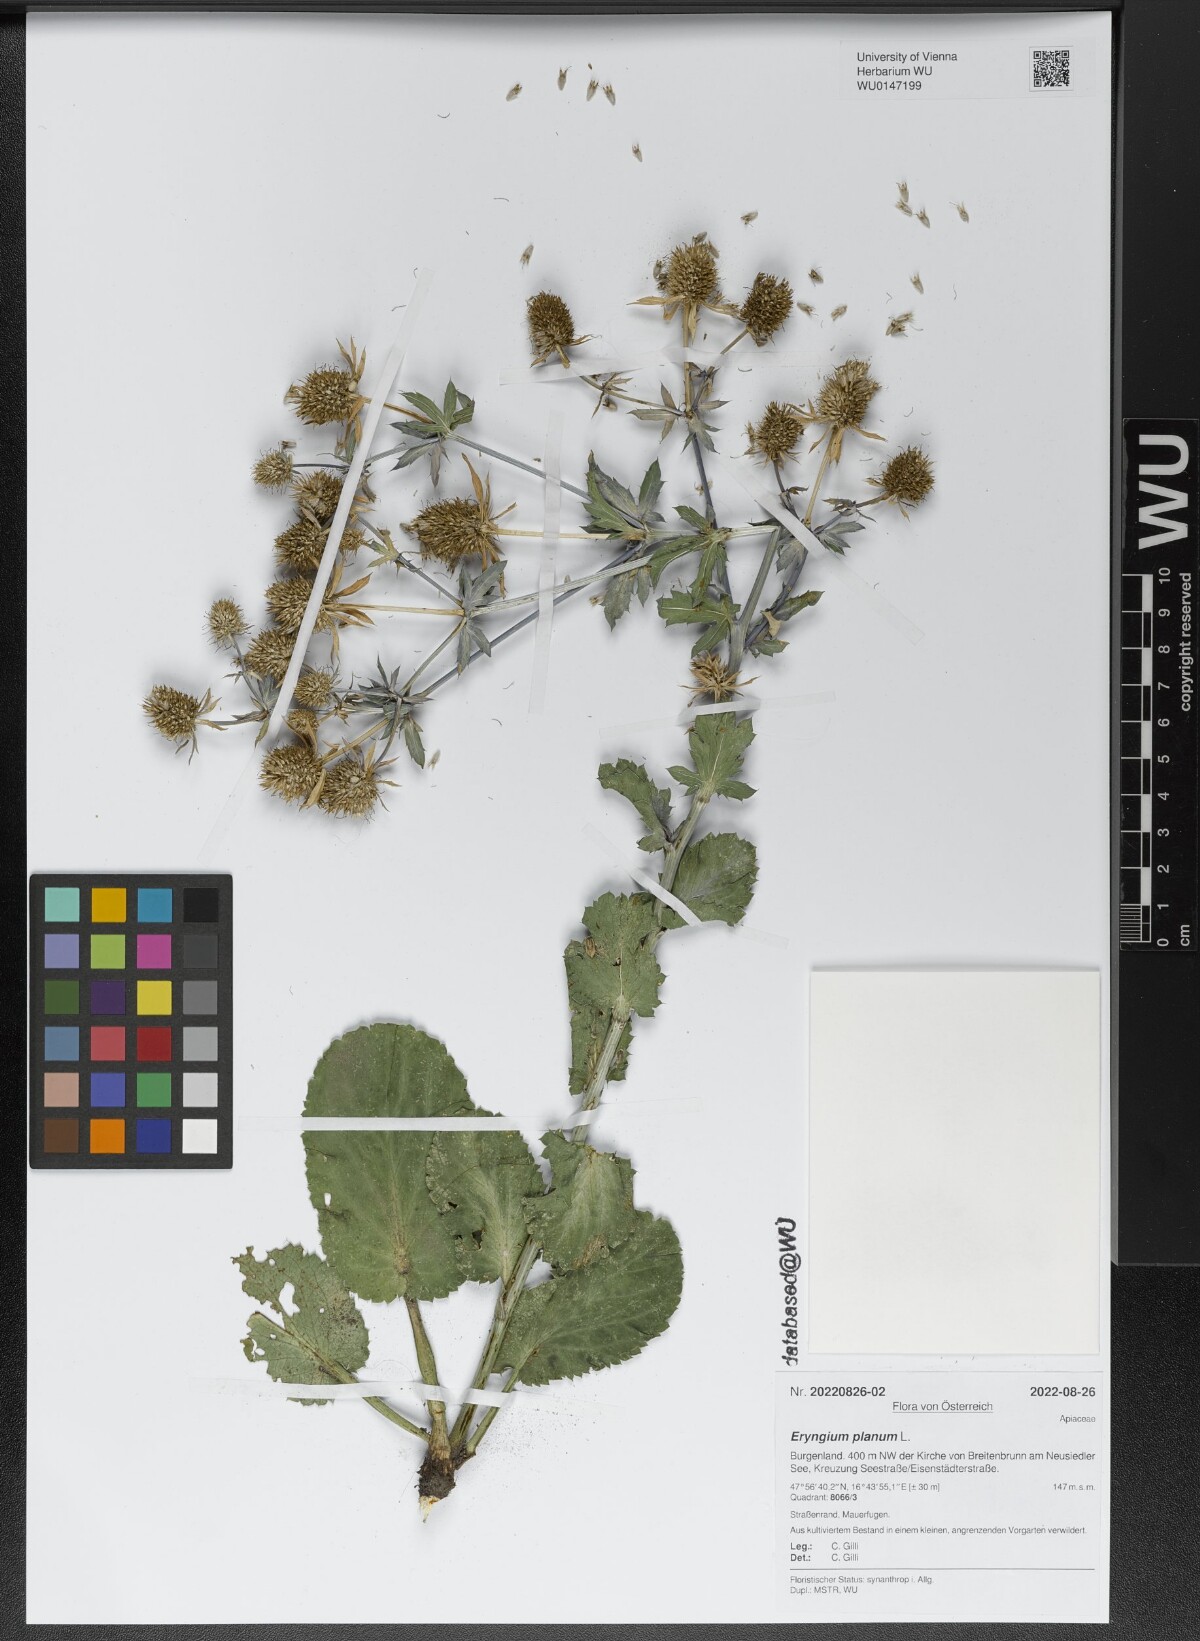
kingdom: Plantae
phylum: Tracheophyta
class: Magnoliopsida
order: Apiales
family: Apiaceae
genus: Eryngium
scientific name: Eryngium planum
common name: Blue eryngo
